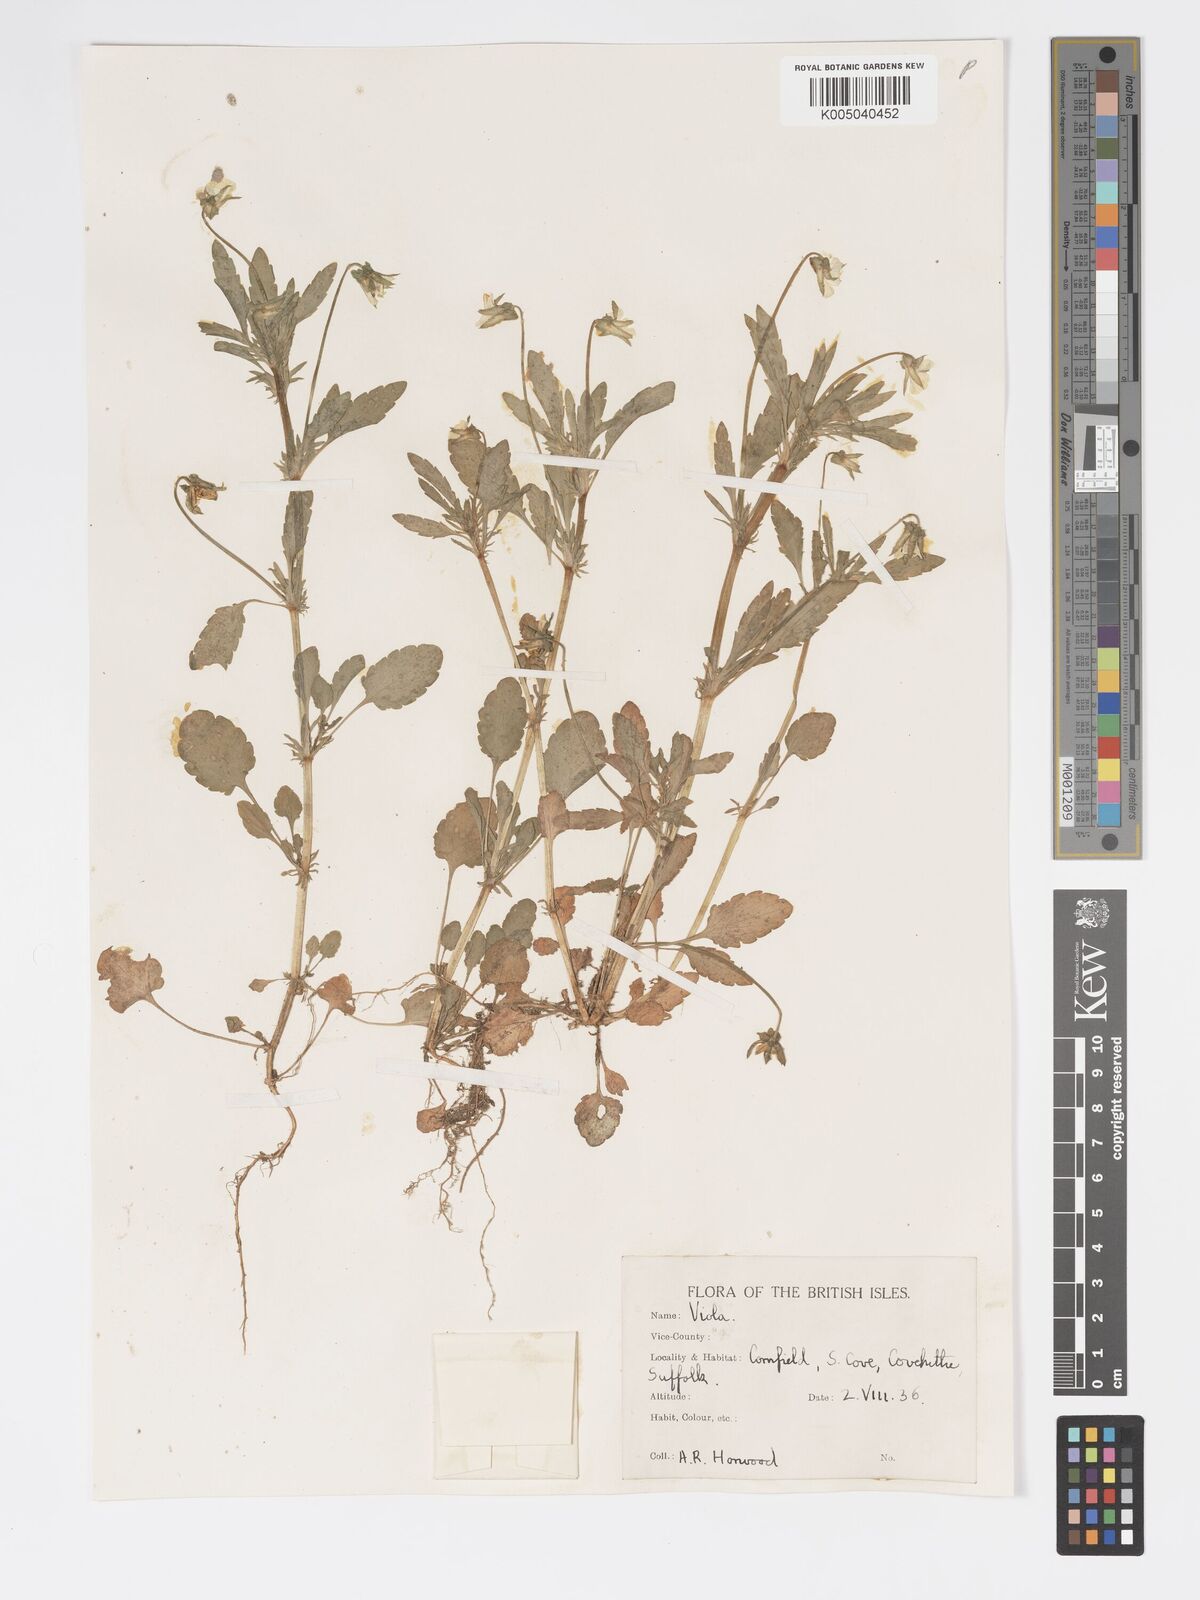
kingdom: Plantae
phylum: Tracheophyta
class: Magnoliopsida
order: Malpighiales
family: Violaceae
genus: Viola
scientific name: Viola arvensis
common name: Field pansy
